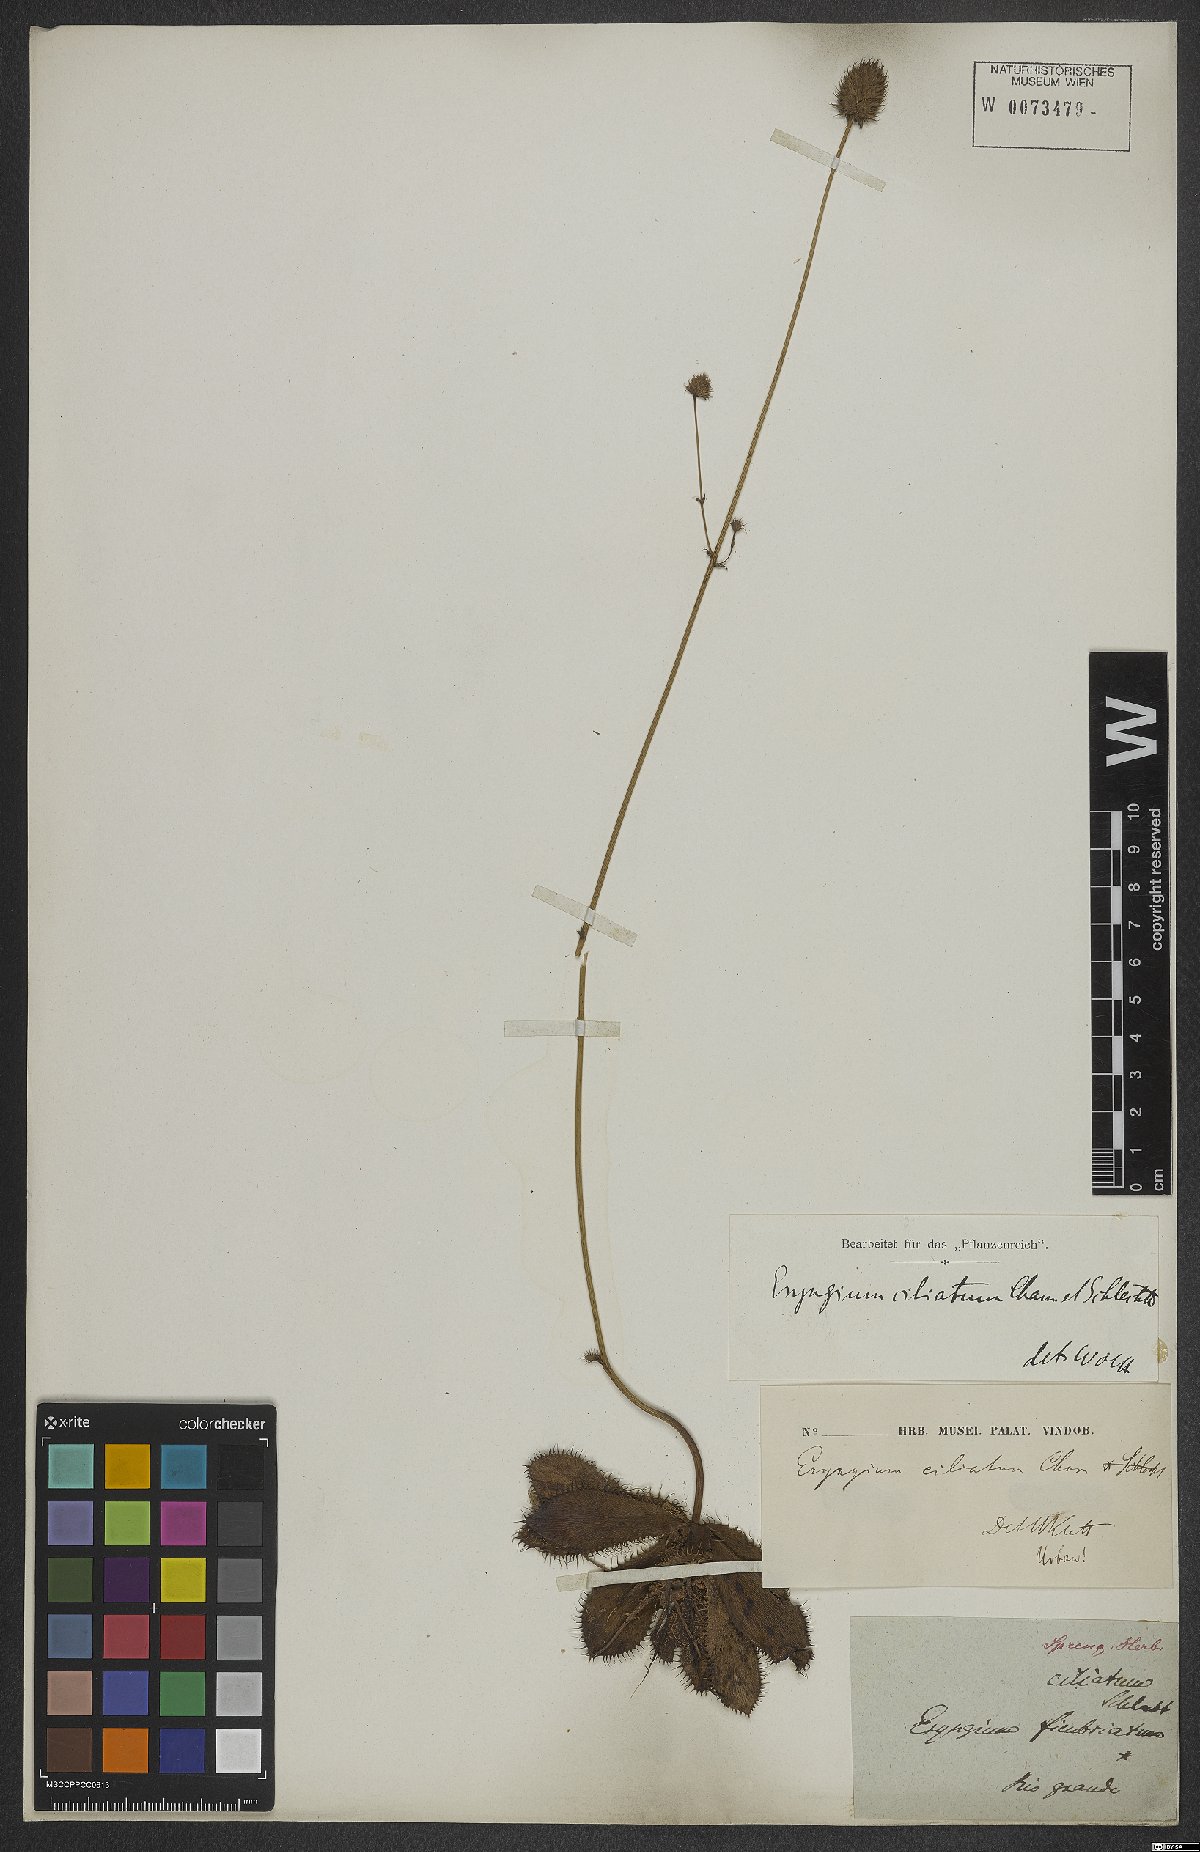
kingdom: Plantae
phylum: Tracheophyta
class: Magnoliopsida
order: Apiales
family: Apiaceae
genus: Eryngium
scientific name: Eryngium ciliatum
